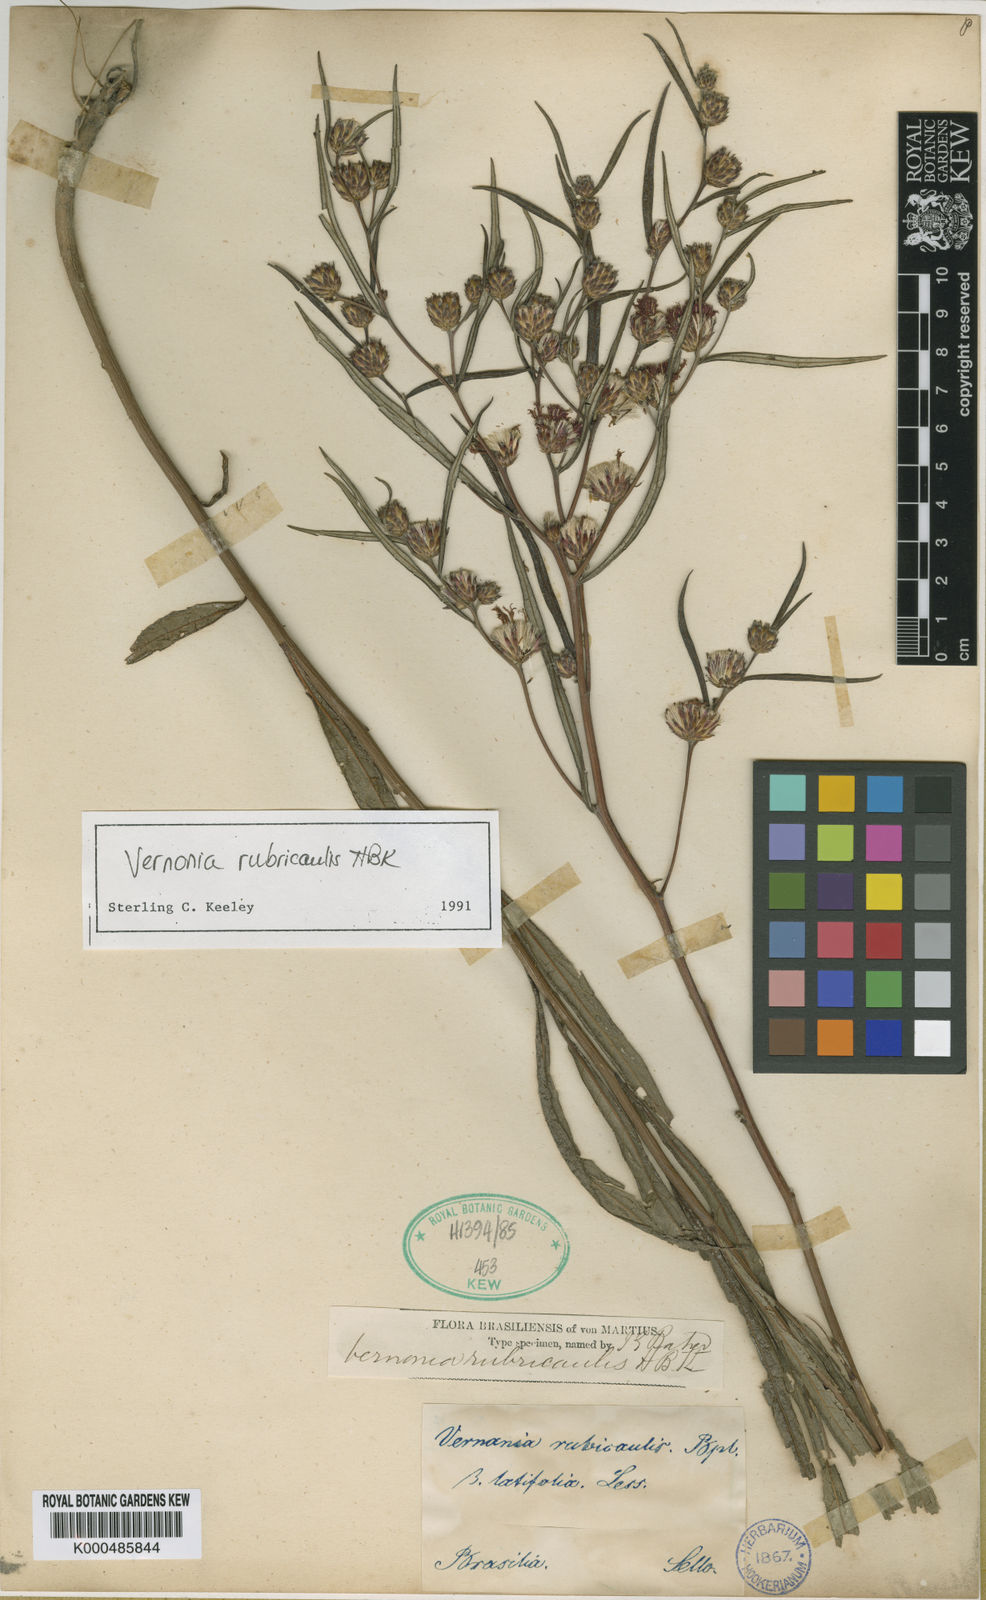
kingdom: Plantae
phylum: Tracheophyta
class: Magnoliopsida
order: Asterales
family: Asteraceae
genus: Vernonia
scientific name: Vernonia
